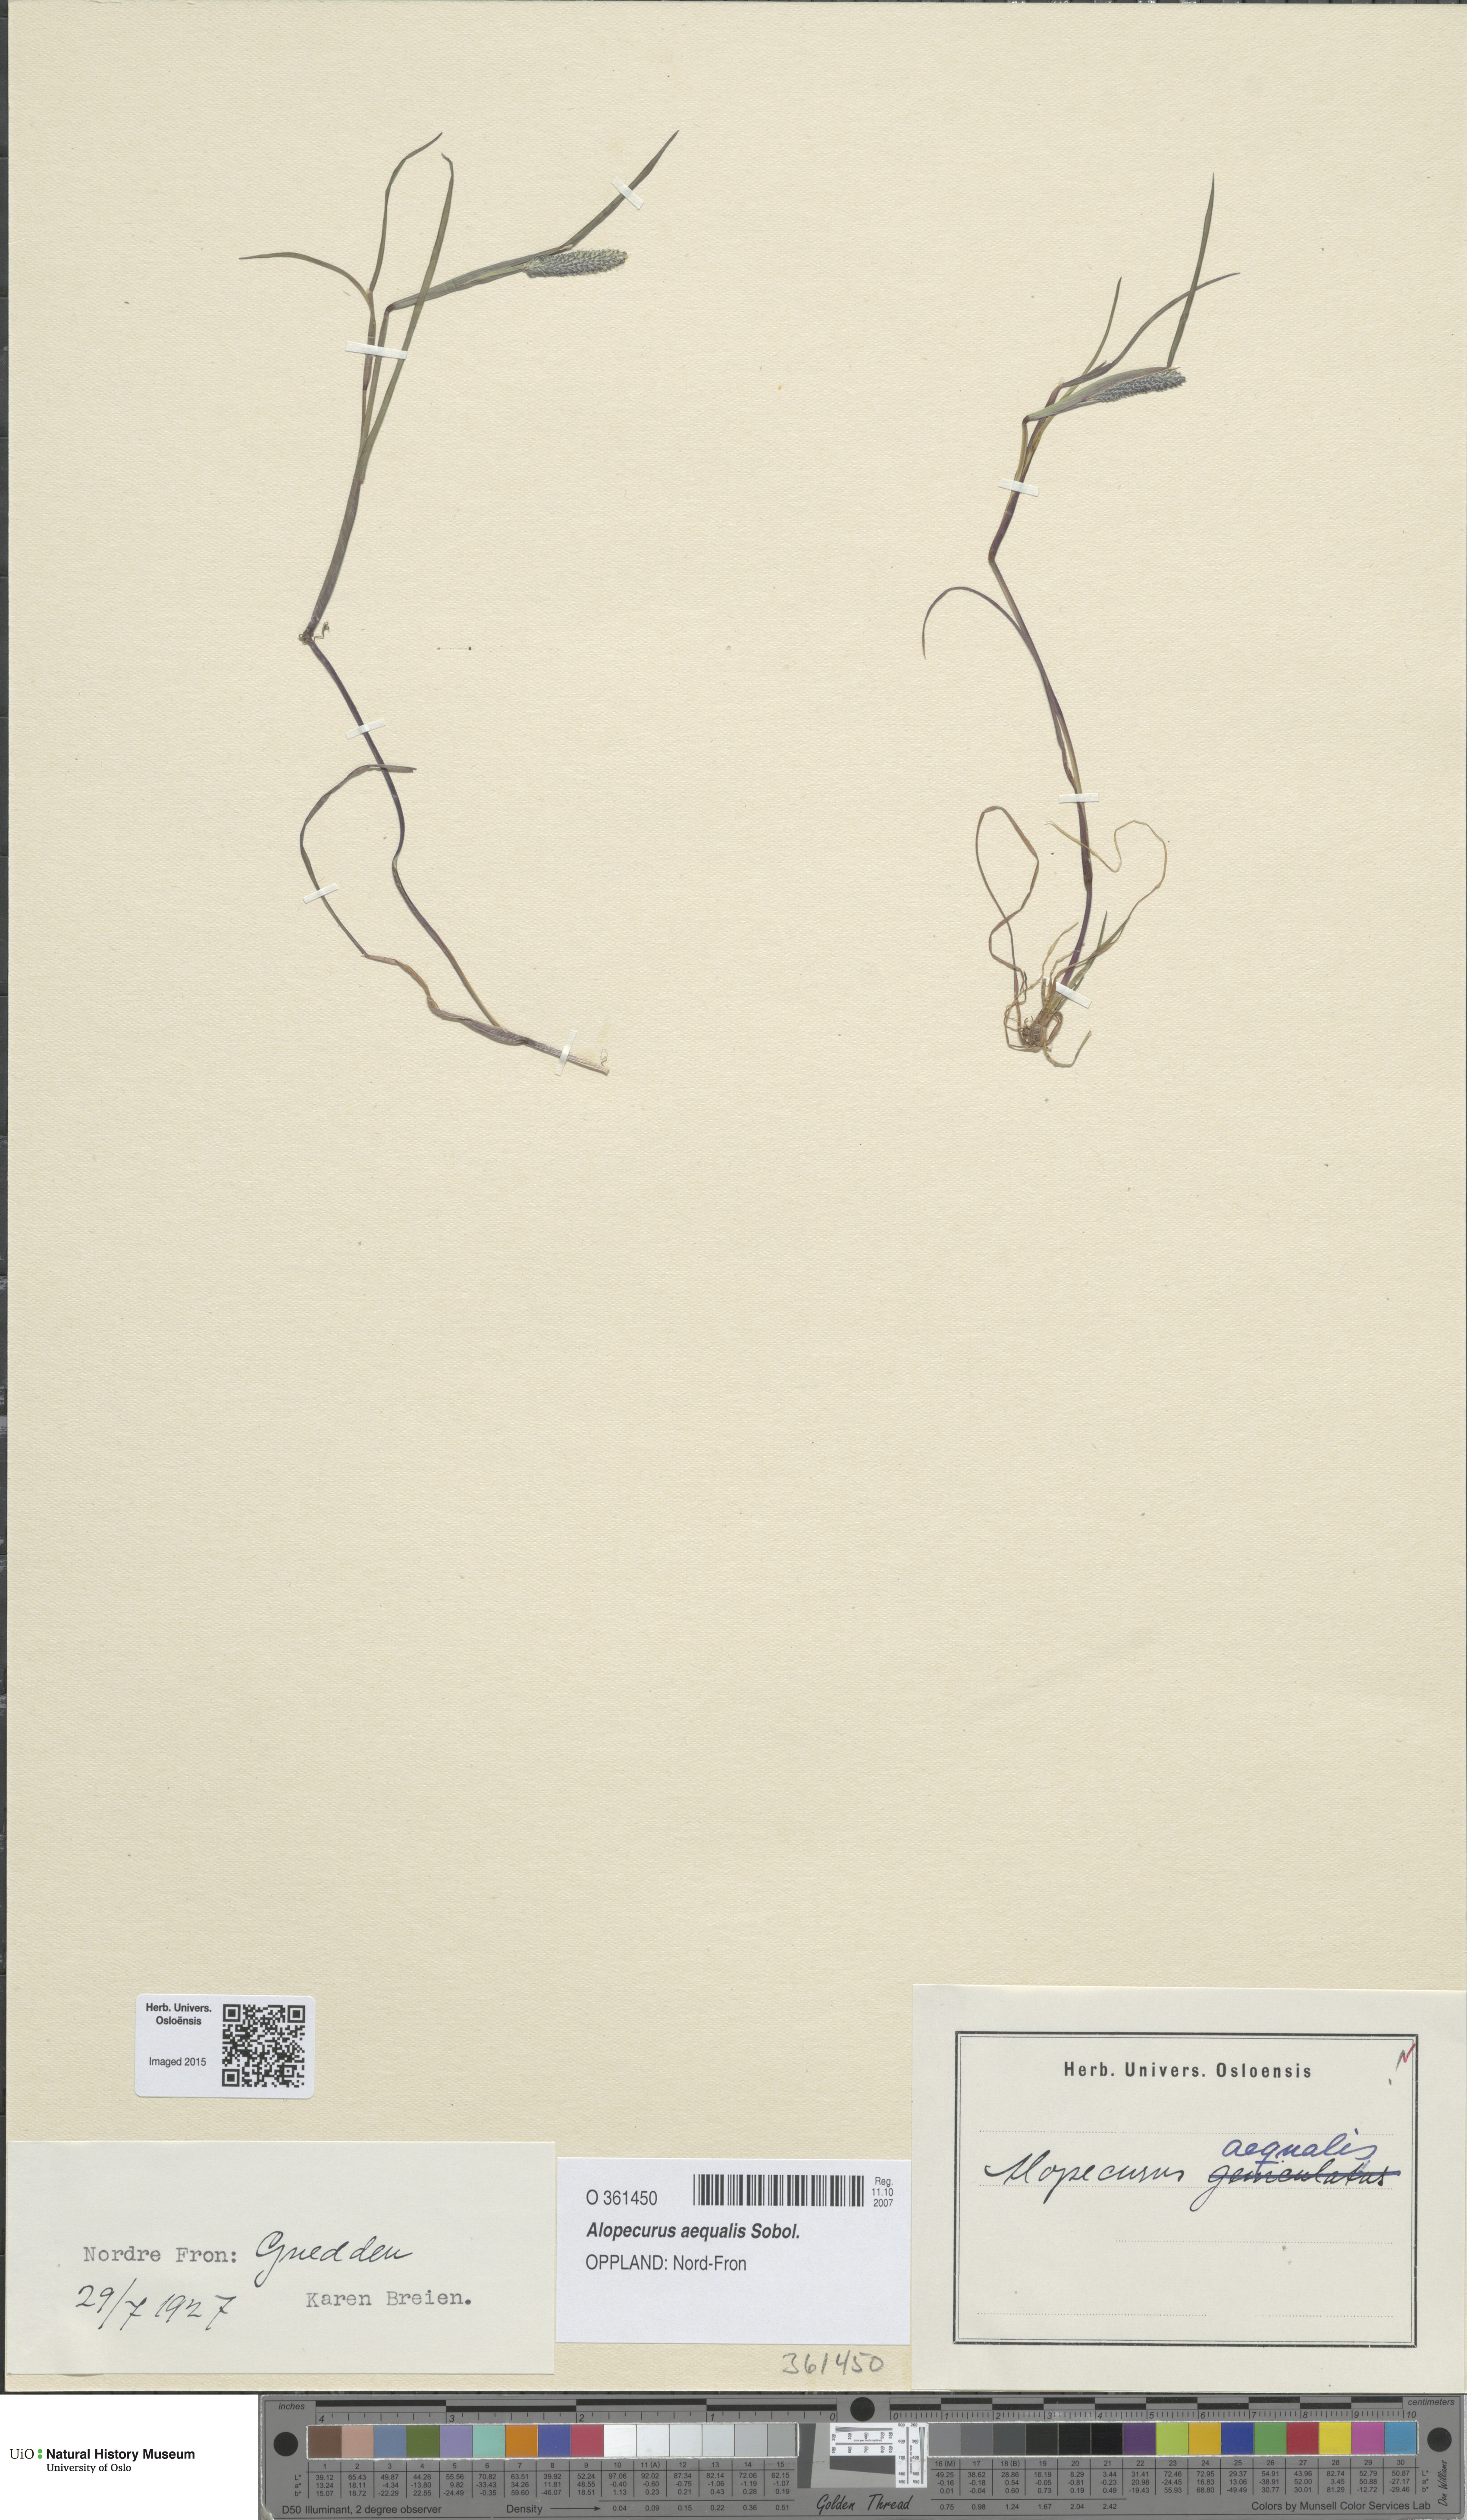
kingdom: Plantae
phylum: Tracheophyta
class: Liliopsida
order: Poales
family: Poaceae
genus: Alopecurus
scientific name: Alopecurus aequalis
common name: Orange foxtail
